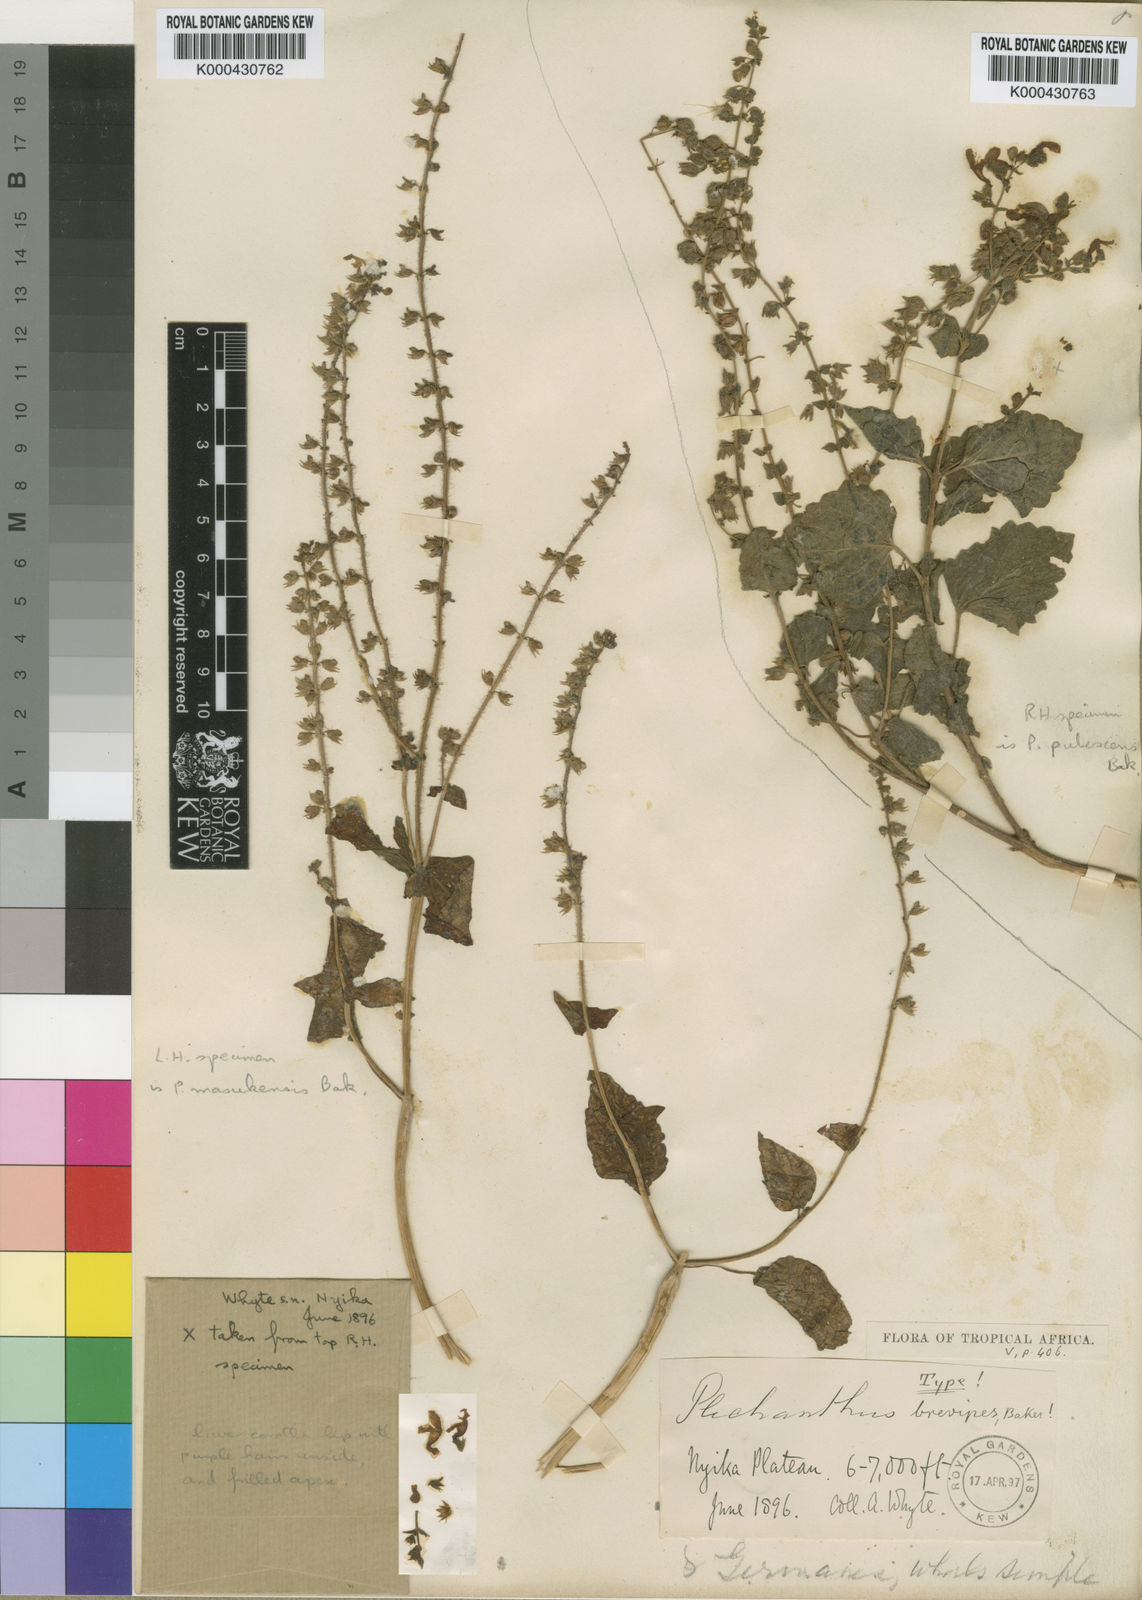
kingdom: Plantae
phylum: Tracheophyta
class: Magnoliopsida
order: Lamiales
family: Lamiaceae
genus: Equilabium
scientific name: Equilabium pubescens
